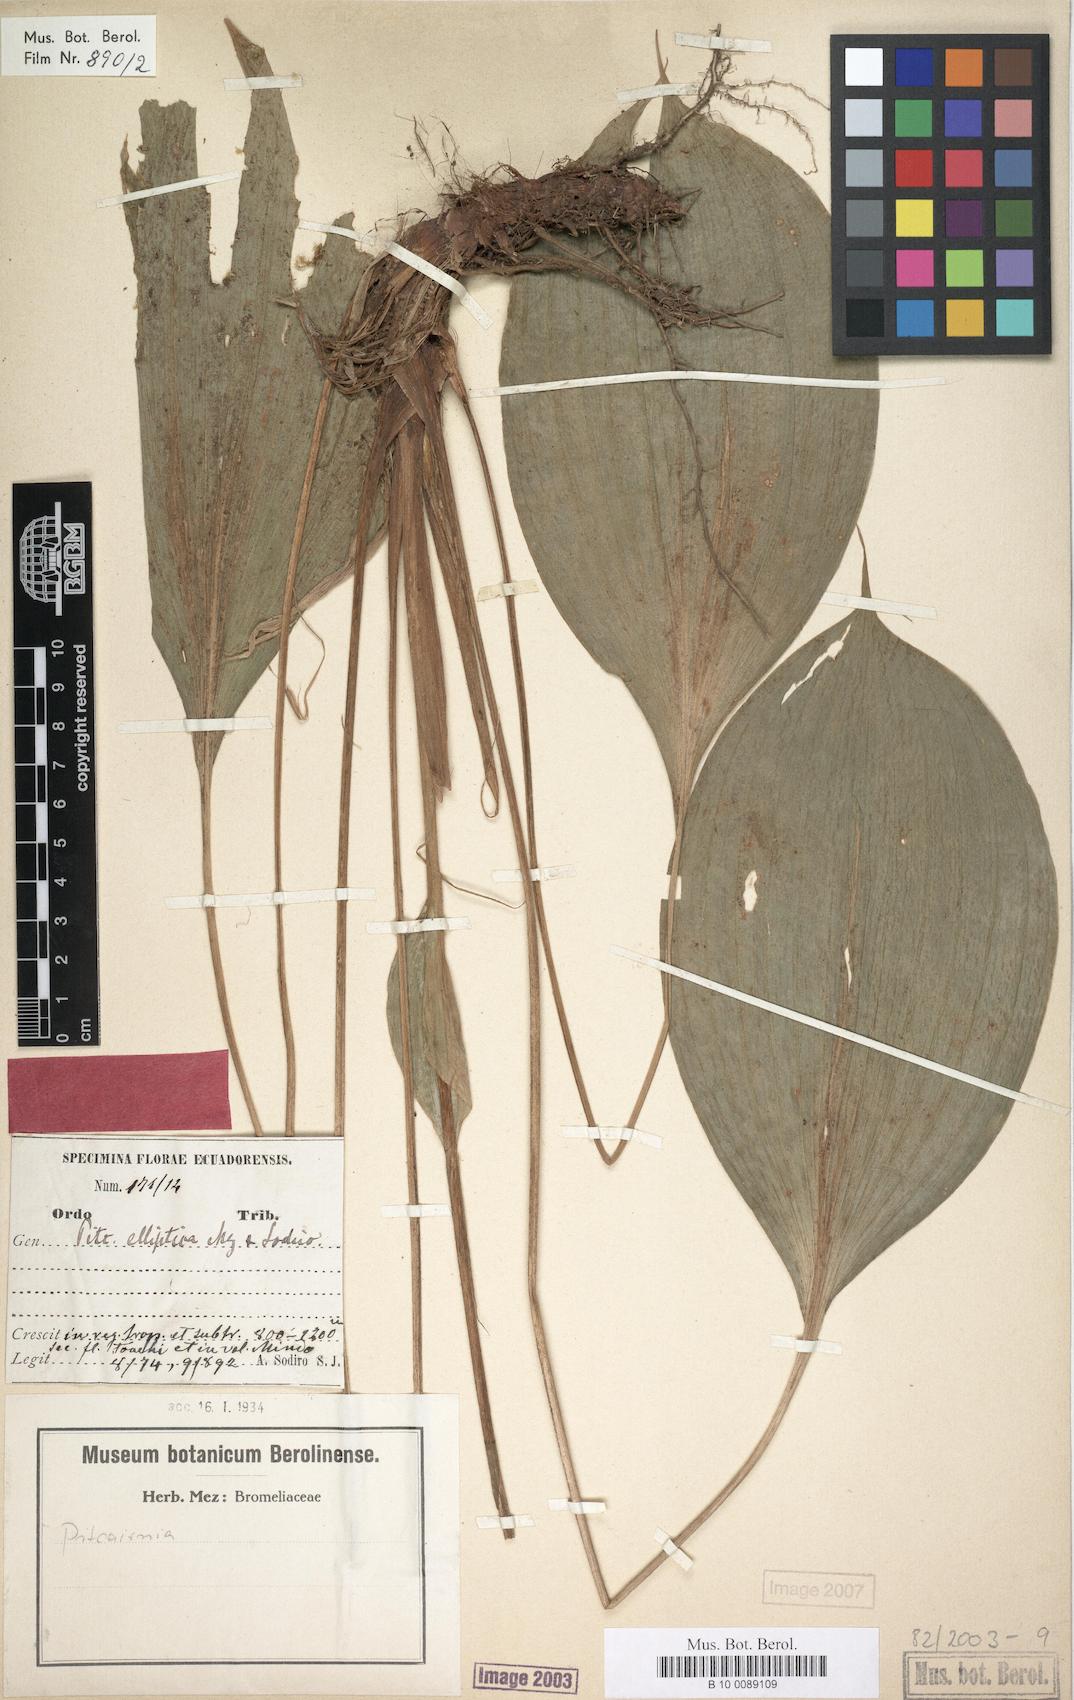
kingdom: Plantae
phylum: Tracheophyta
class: Liliopsida
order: Poales
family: Bromeliaceae
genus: Pitcairnia
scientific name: Pitcairnia elliptica
